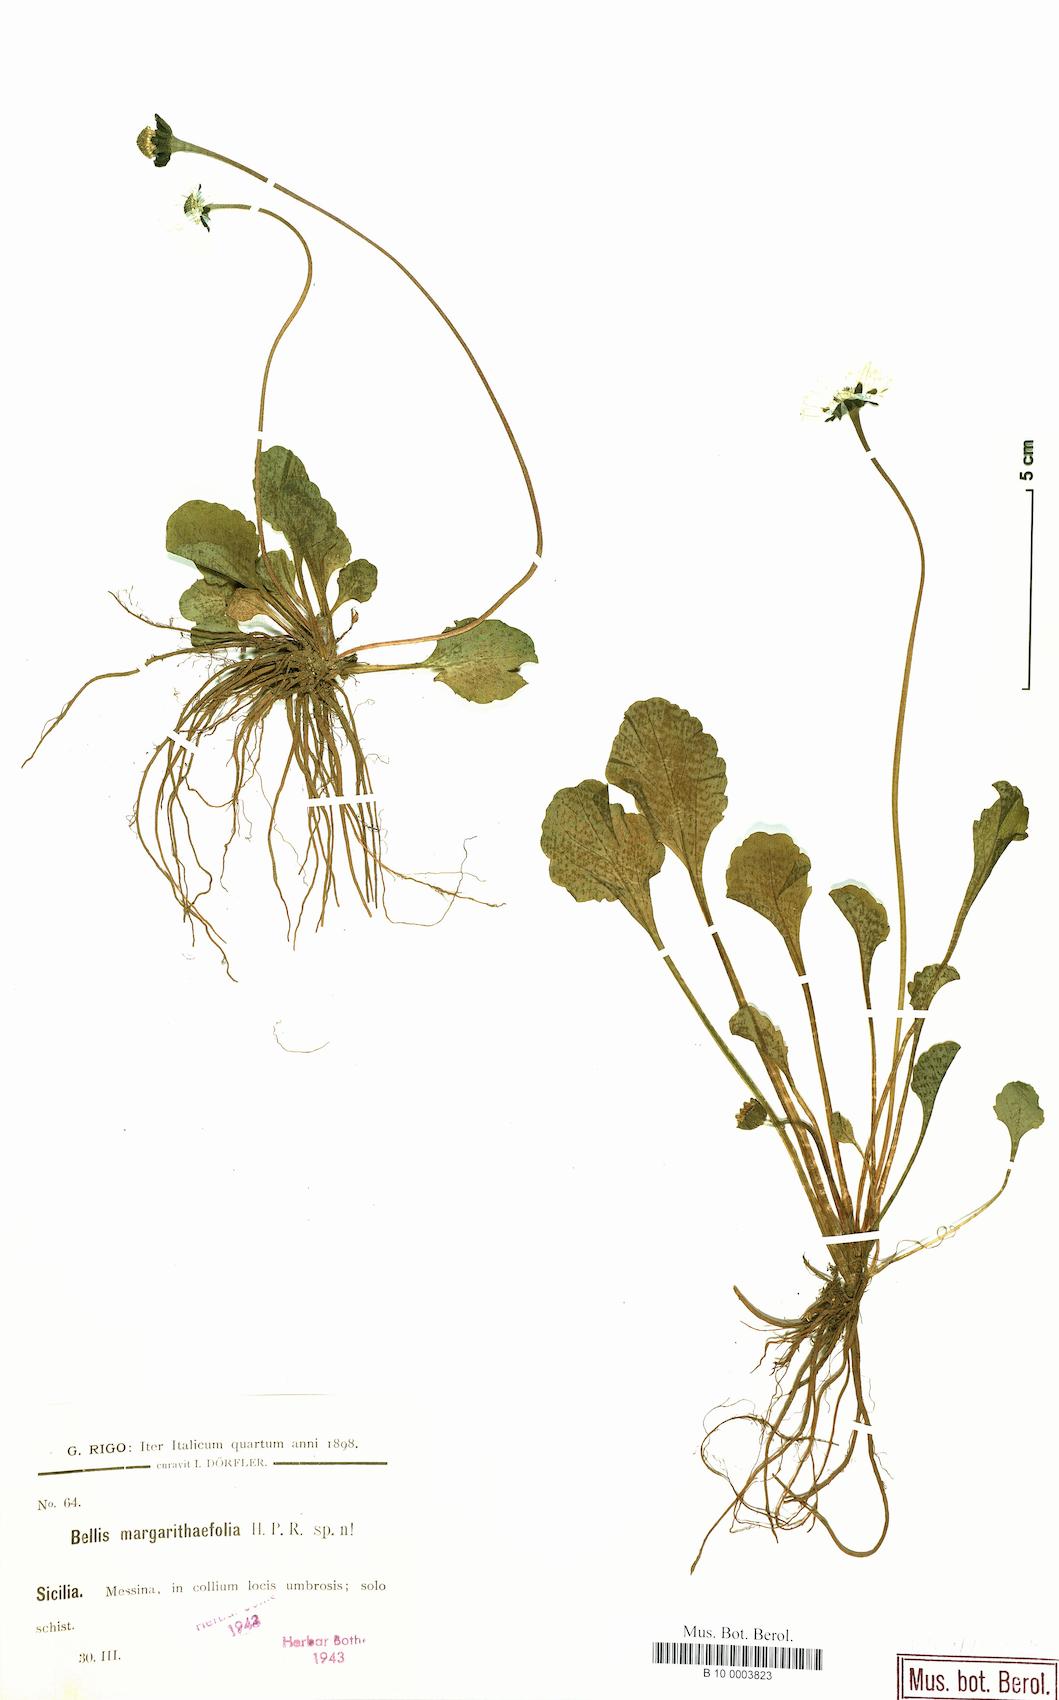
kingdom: Plantae
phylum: Tracheophyta
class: Magnoliopsida
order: Asterales
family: Asteraceae
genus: Bellis
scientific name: Bellis margaritifolia
